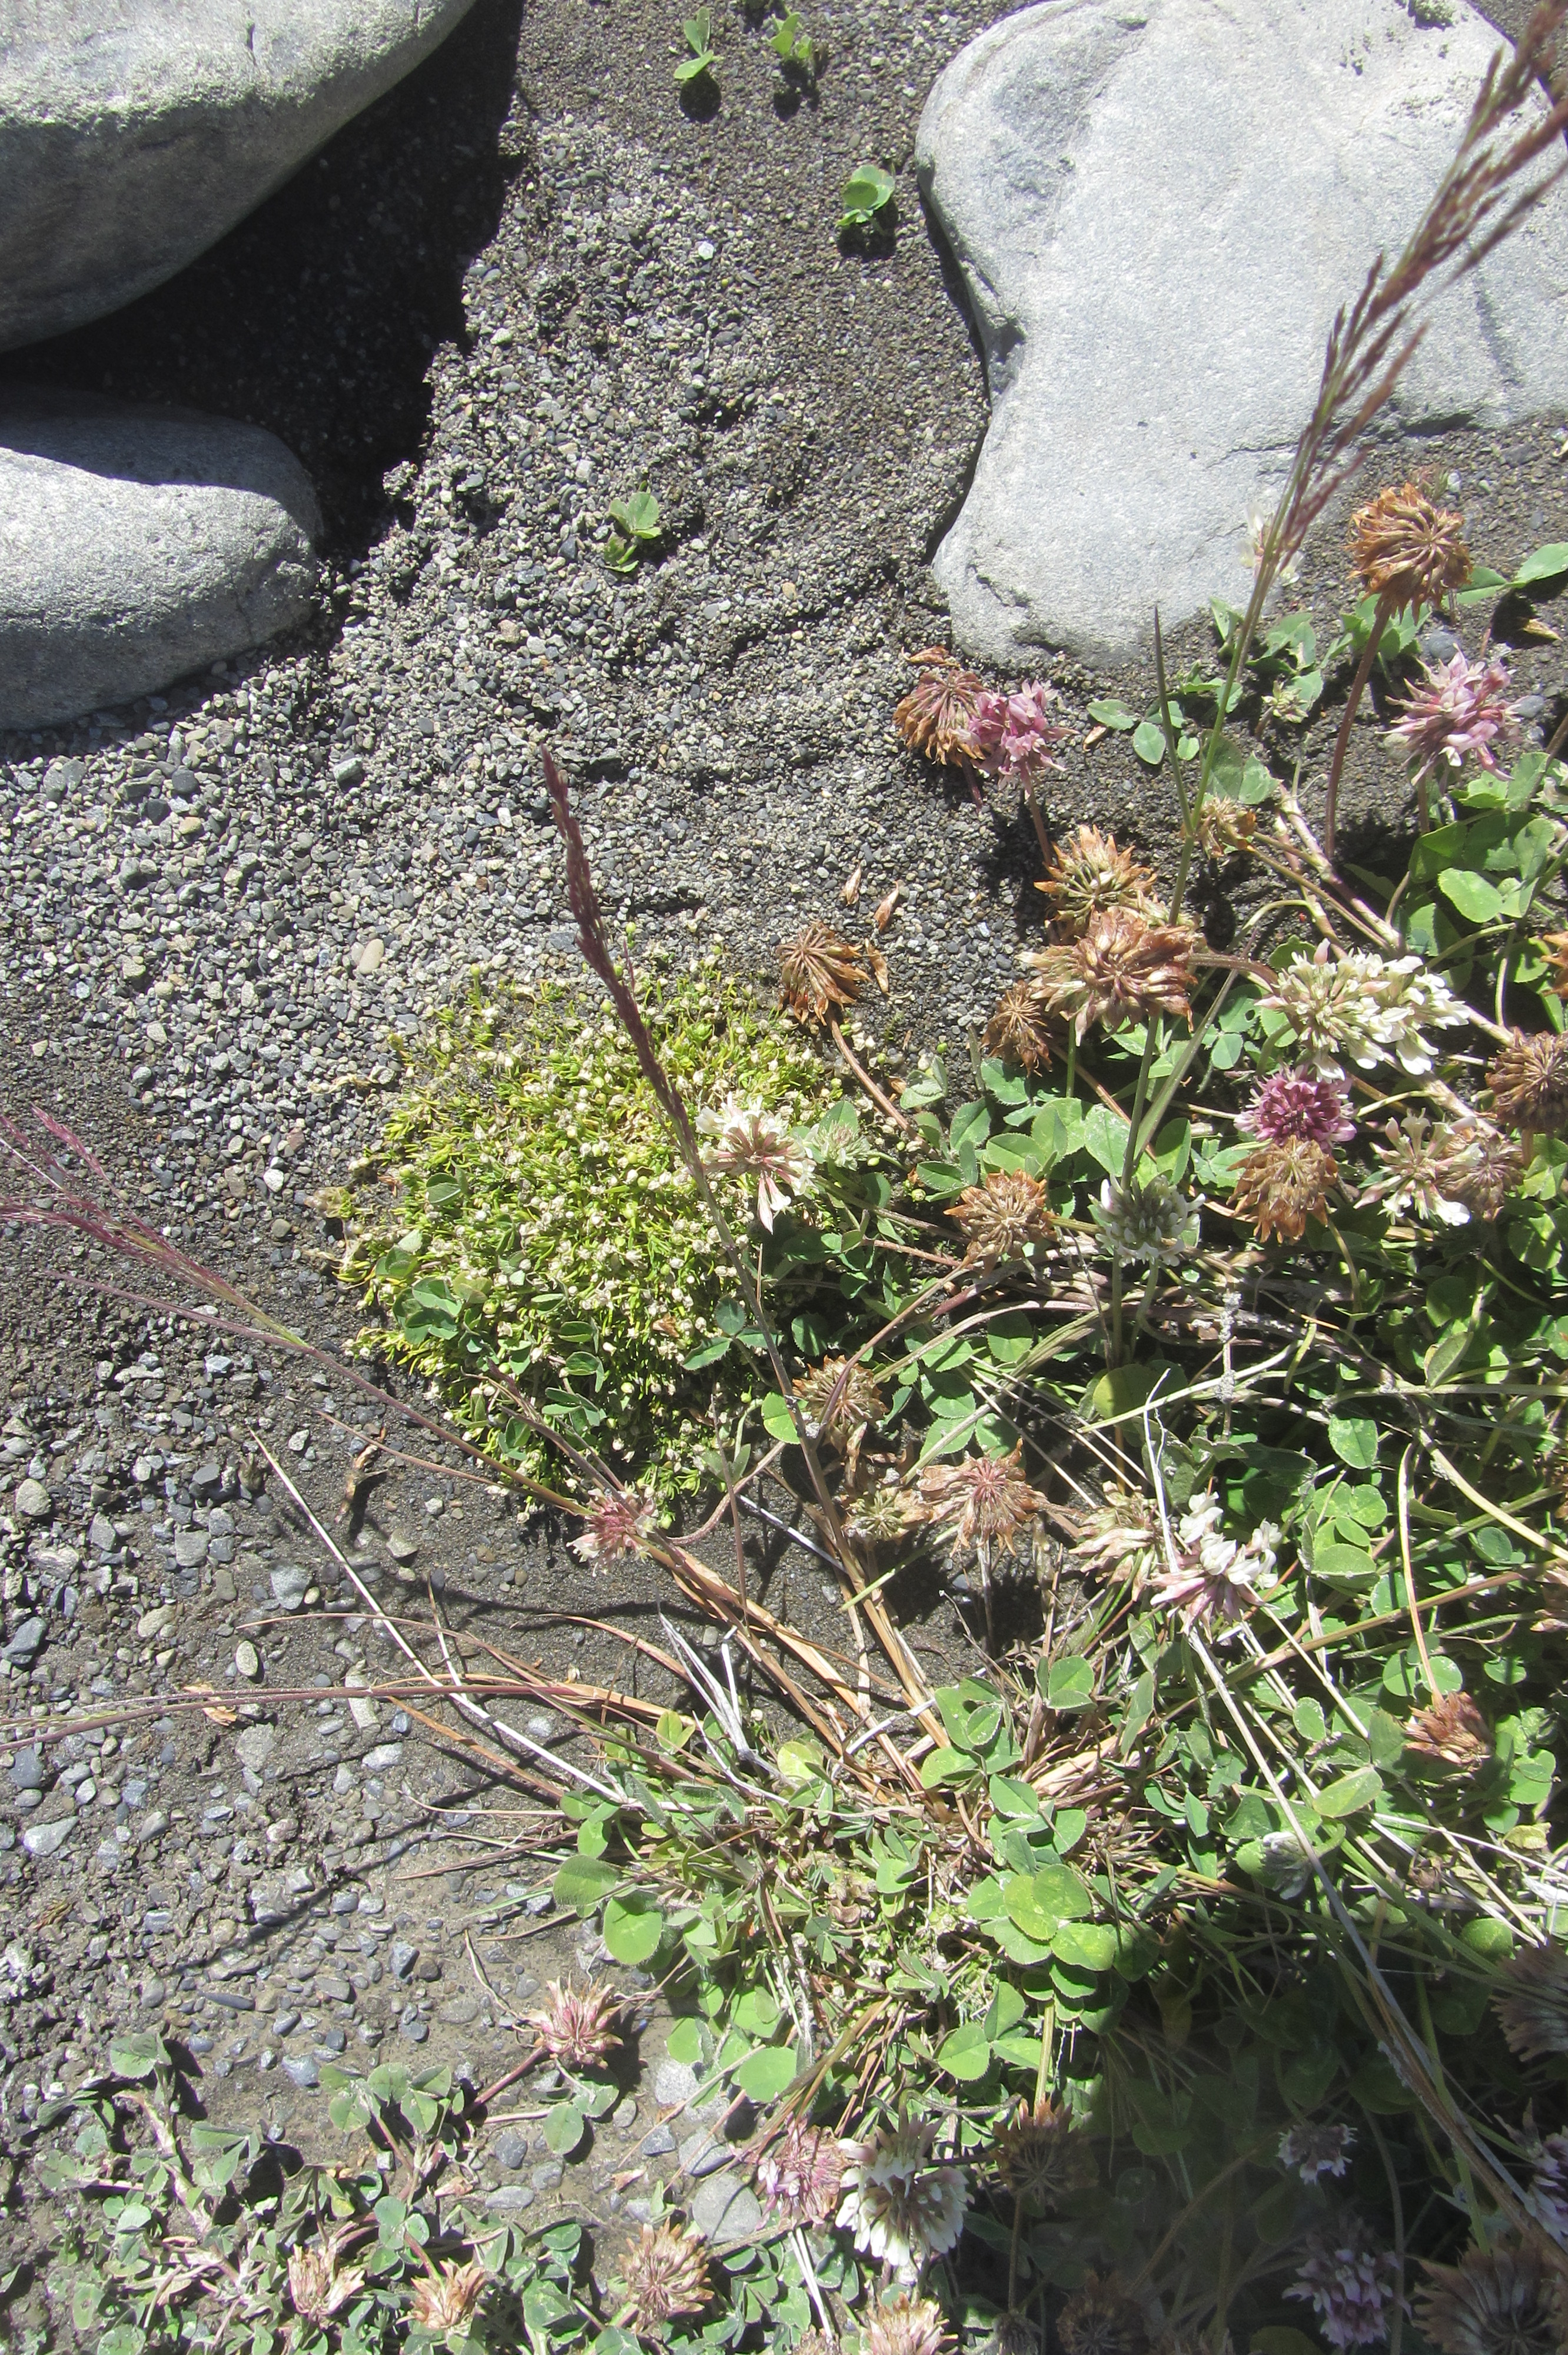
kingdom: Plantae
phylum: Tracheophyta
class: Magnoliopsida
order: Caryophyllales
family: Caryophyllaceae
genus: Sagina
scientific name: Sagina procumbens
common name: Procumbent pearlwort
